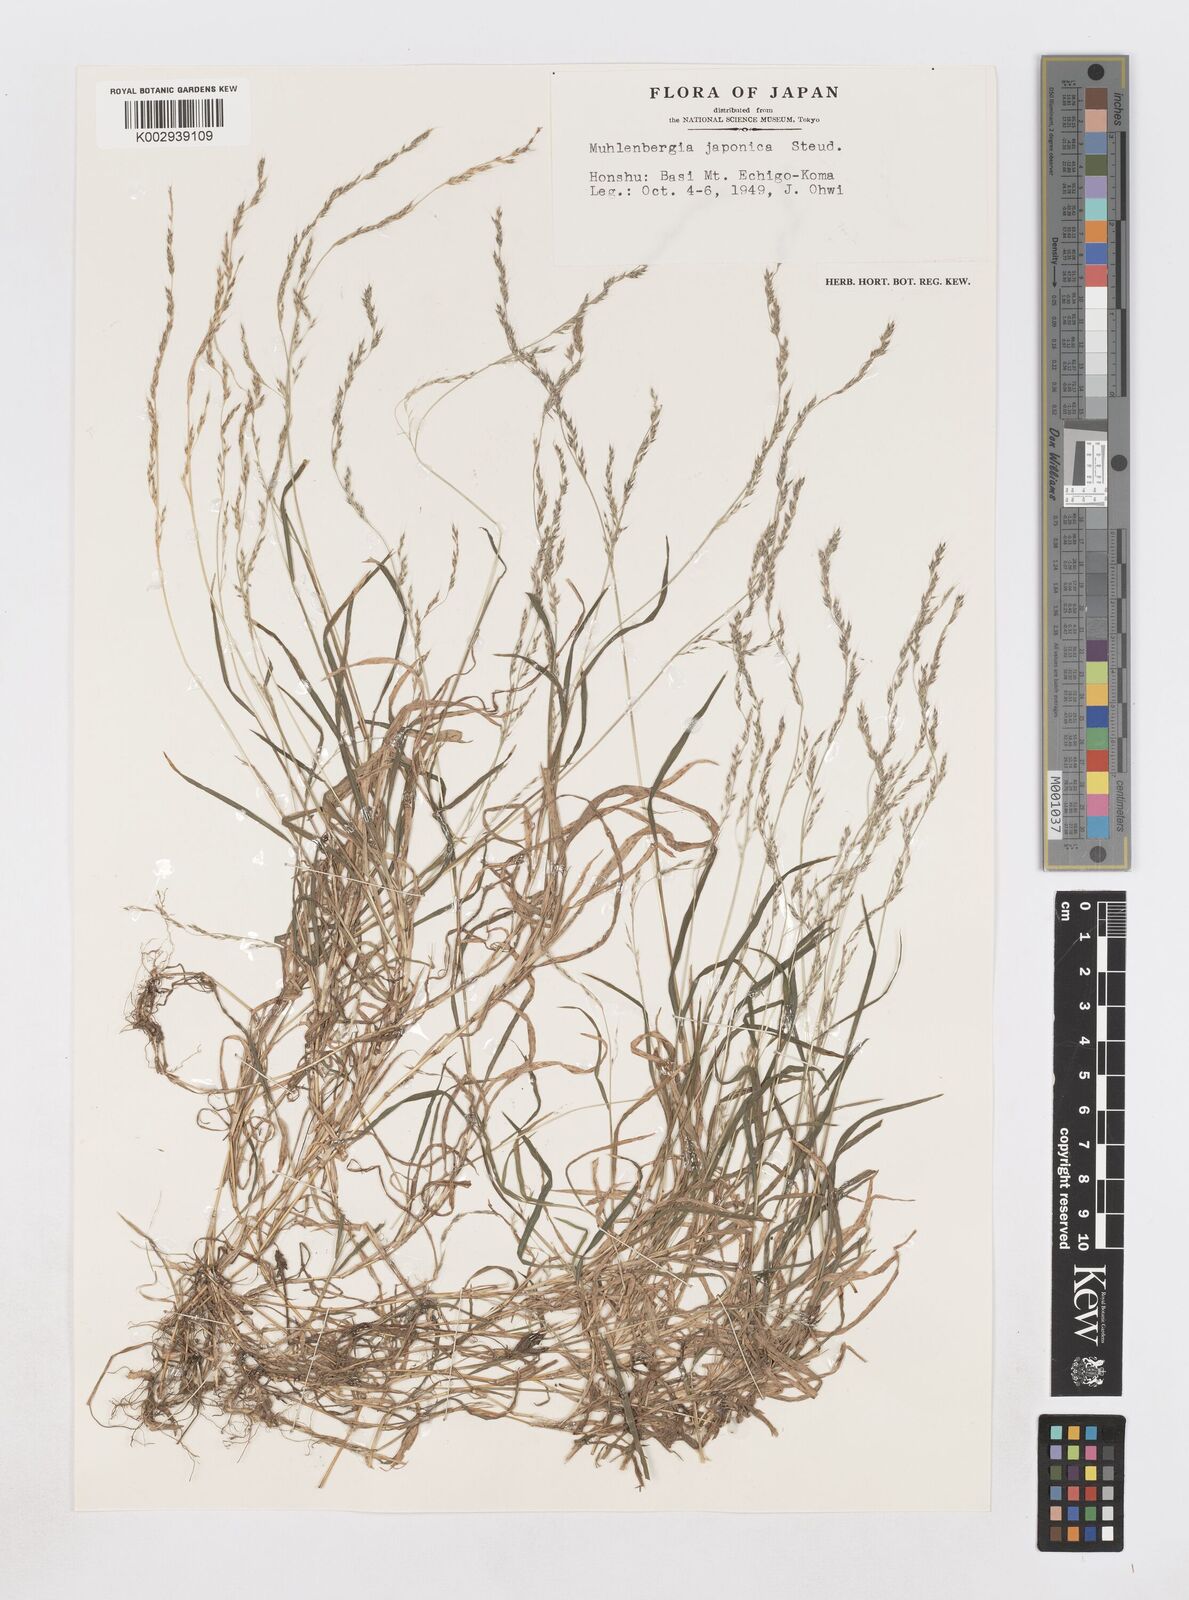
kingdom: Plantae
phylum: Tracheophyta
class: Liliopsida
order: Poales
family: Poaceae
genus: Muhlenbergia
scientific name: Muhlenbergia japonica
